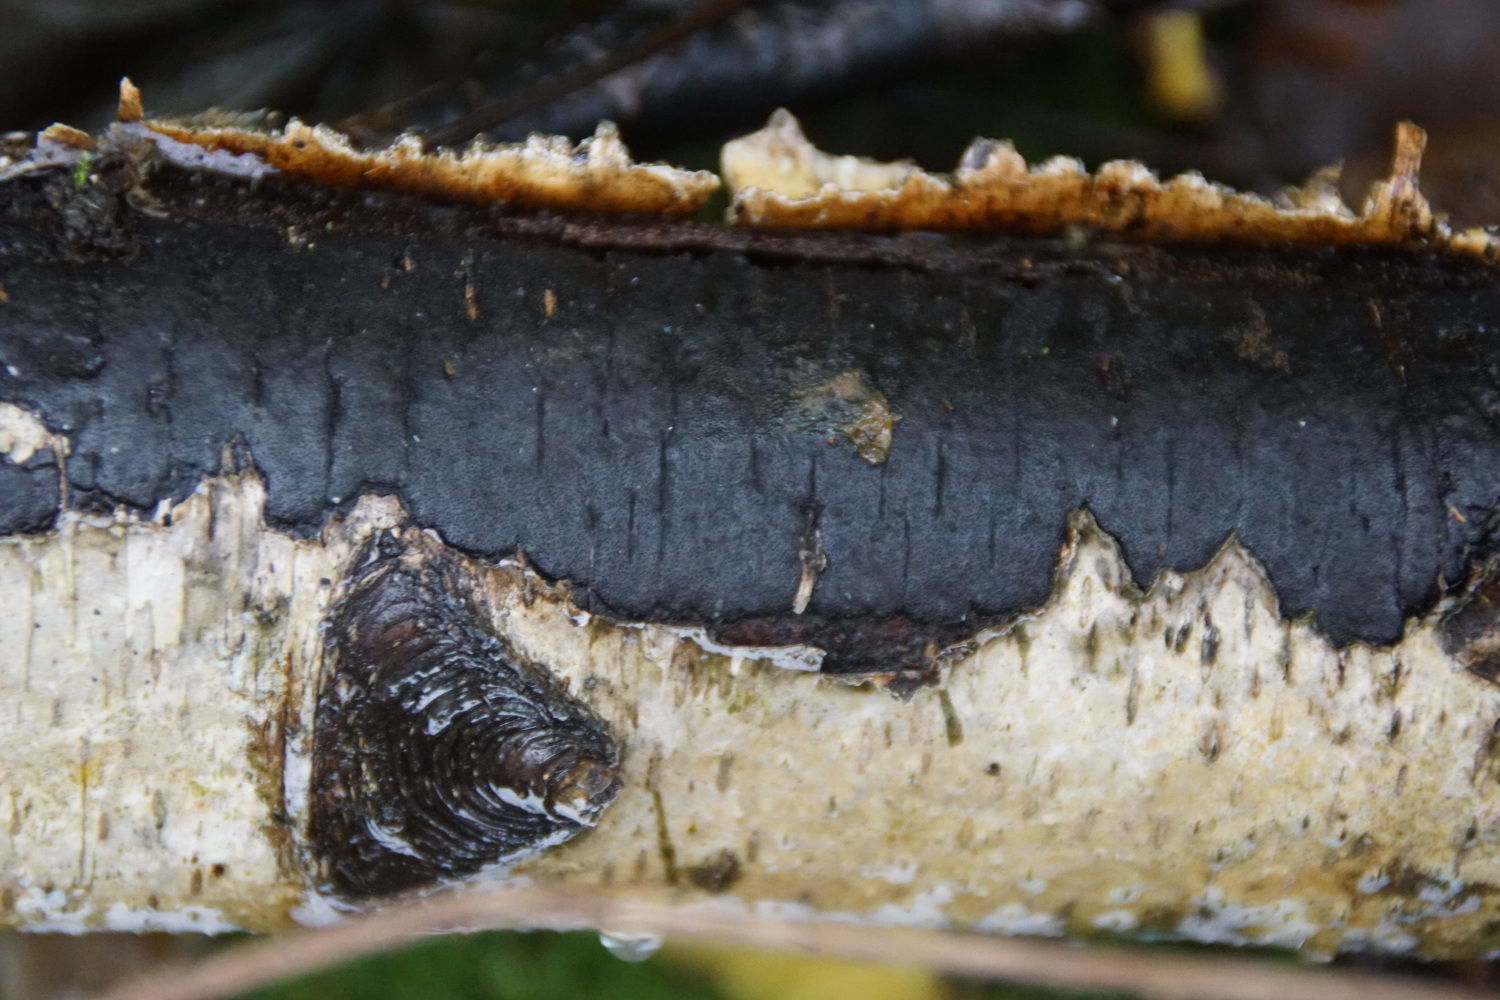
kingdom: Fungi
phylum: Ascomycota
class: Sordariomycetes
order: Xylariales
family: Diatrypaceae
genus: Diatrype
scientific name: Diatrype
